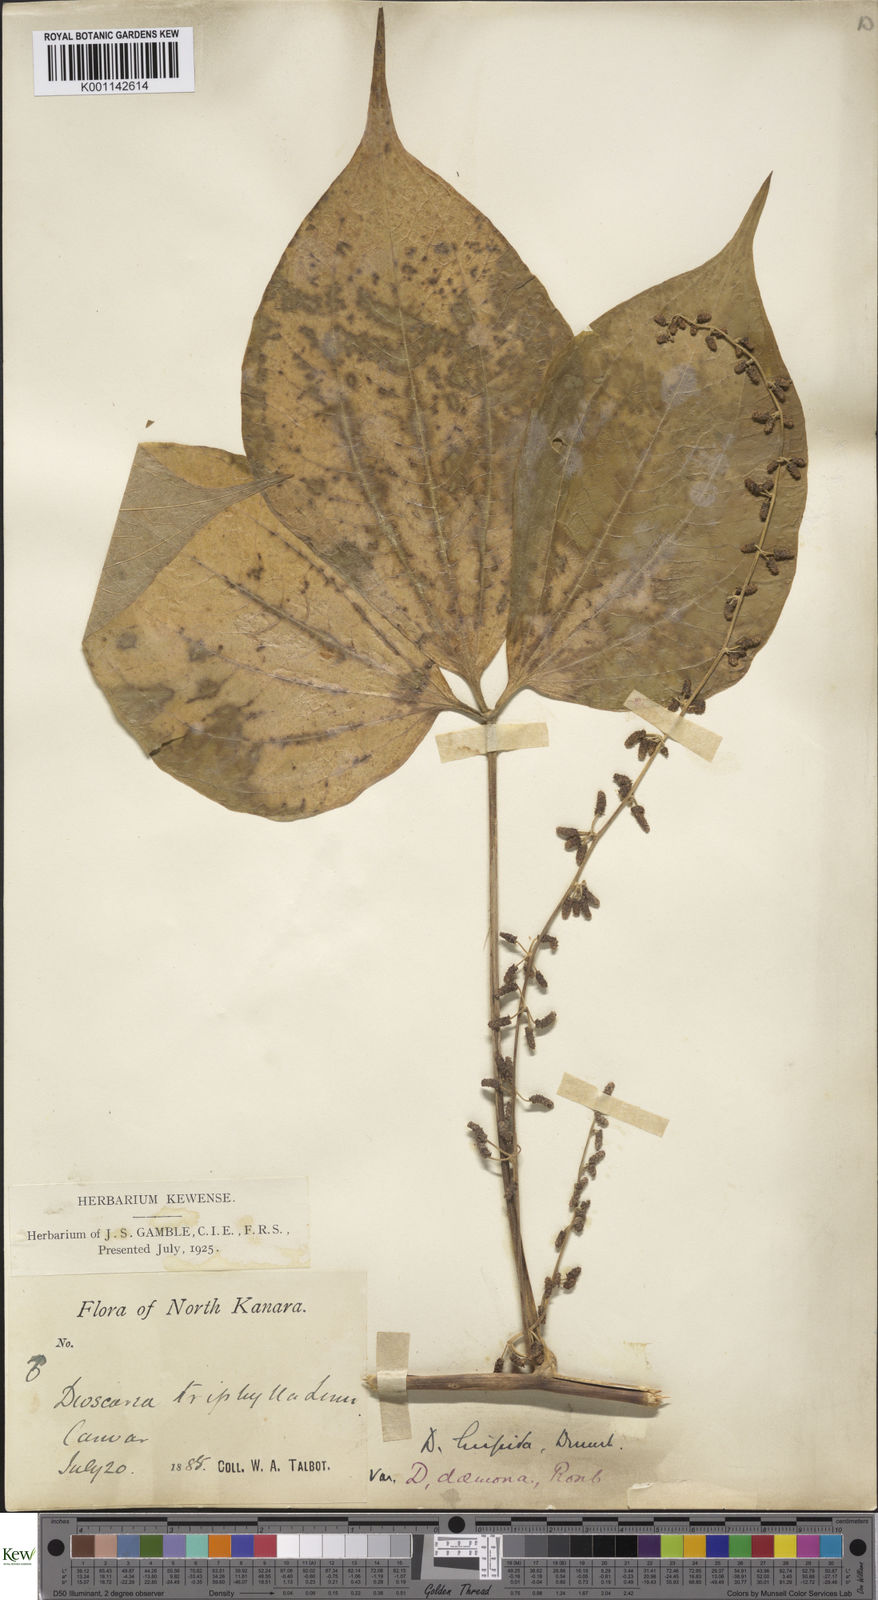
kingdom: Plantae
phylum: Tracheophyta
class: Liliopsida
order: Dioscoreales
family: Dioscoreaceae
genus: Dioscorea
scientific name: Dioscorea hispida
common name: Asiatic bitter yam
